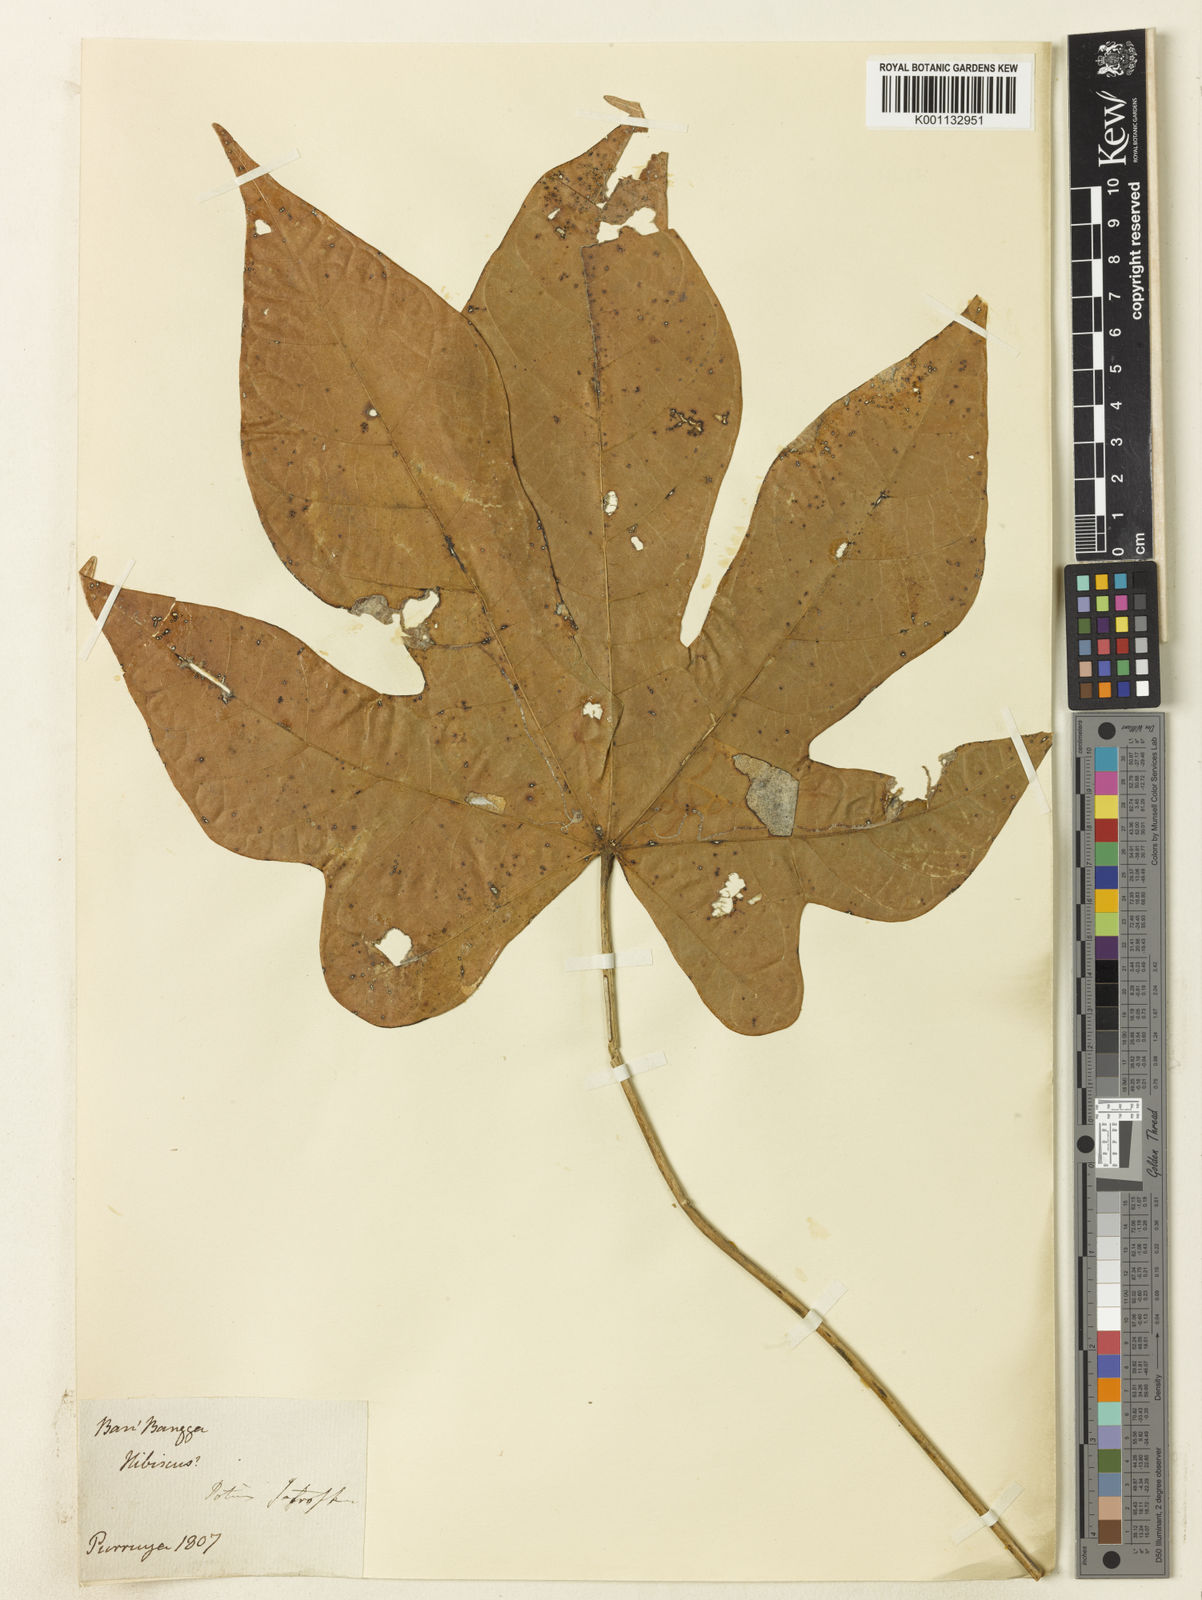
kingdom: Plantae
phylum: Tracheophyta
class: Magnoliopsida
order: Malvales
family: Malvaceae
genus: Hibiscus
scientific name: Hibiscus
